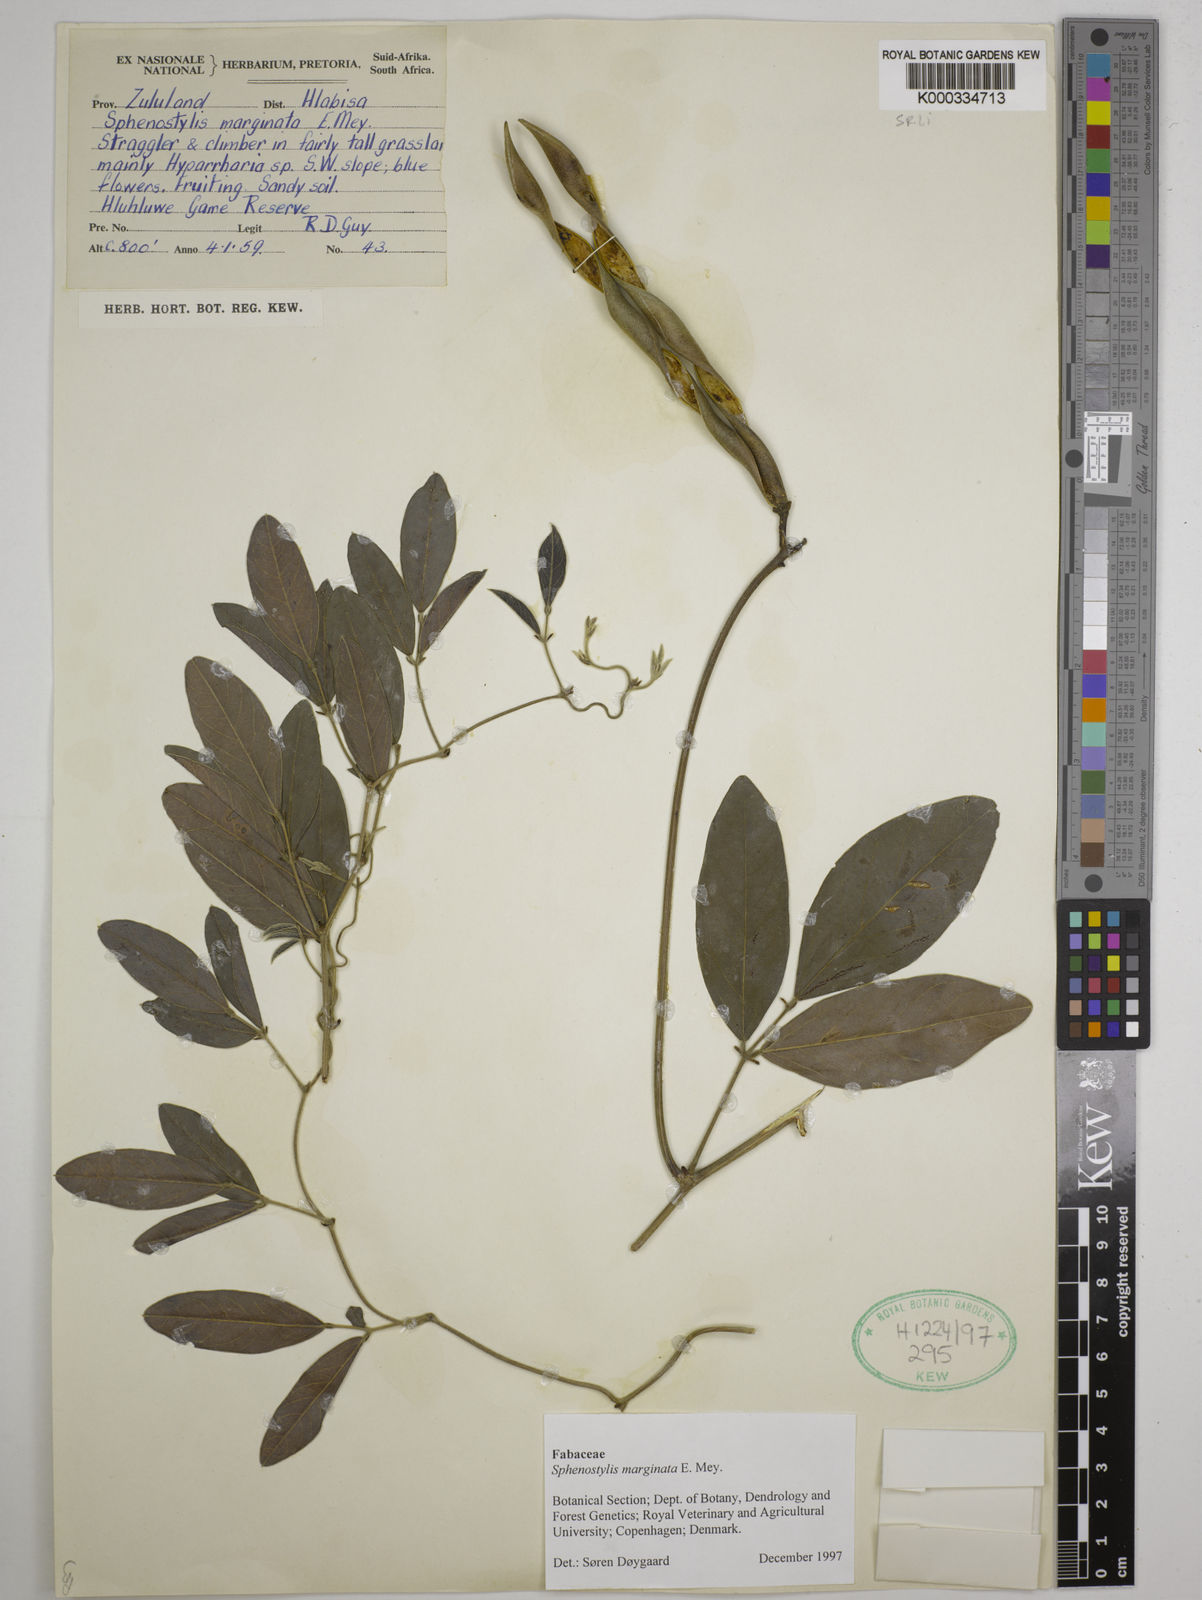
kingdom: Plantae
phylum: Tracheophyta
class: Magnoliopsida
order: Fabales
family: Fabaceae
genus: Sphenostylis
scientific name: Sphenostylis marginata
